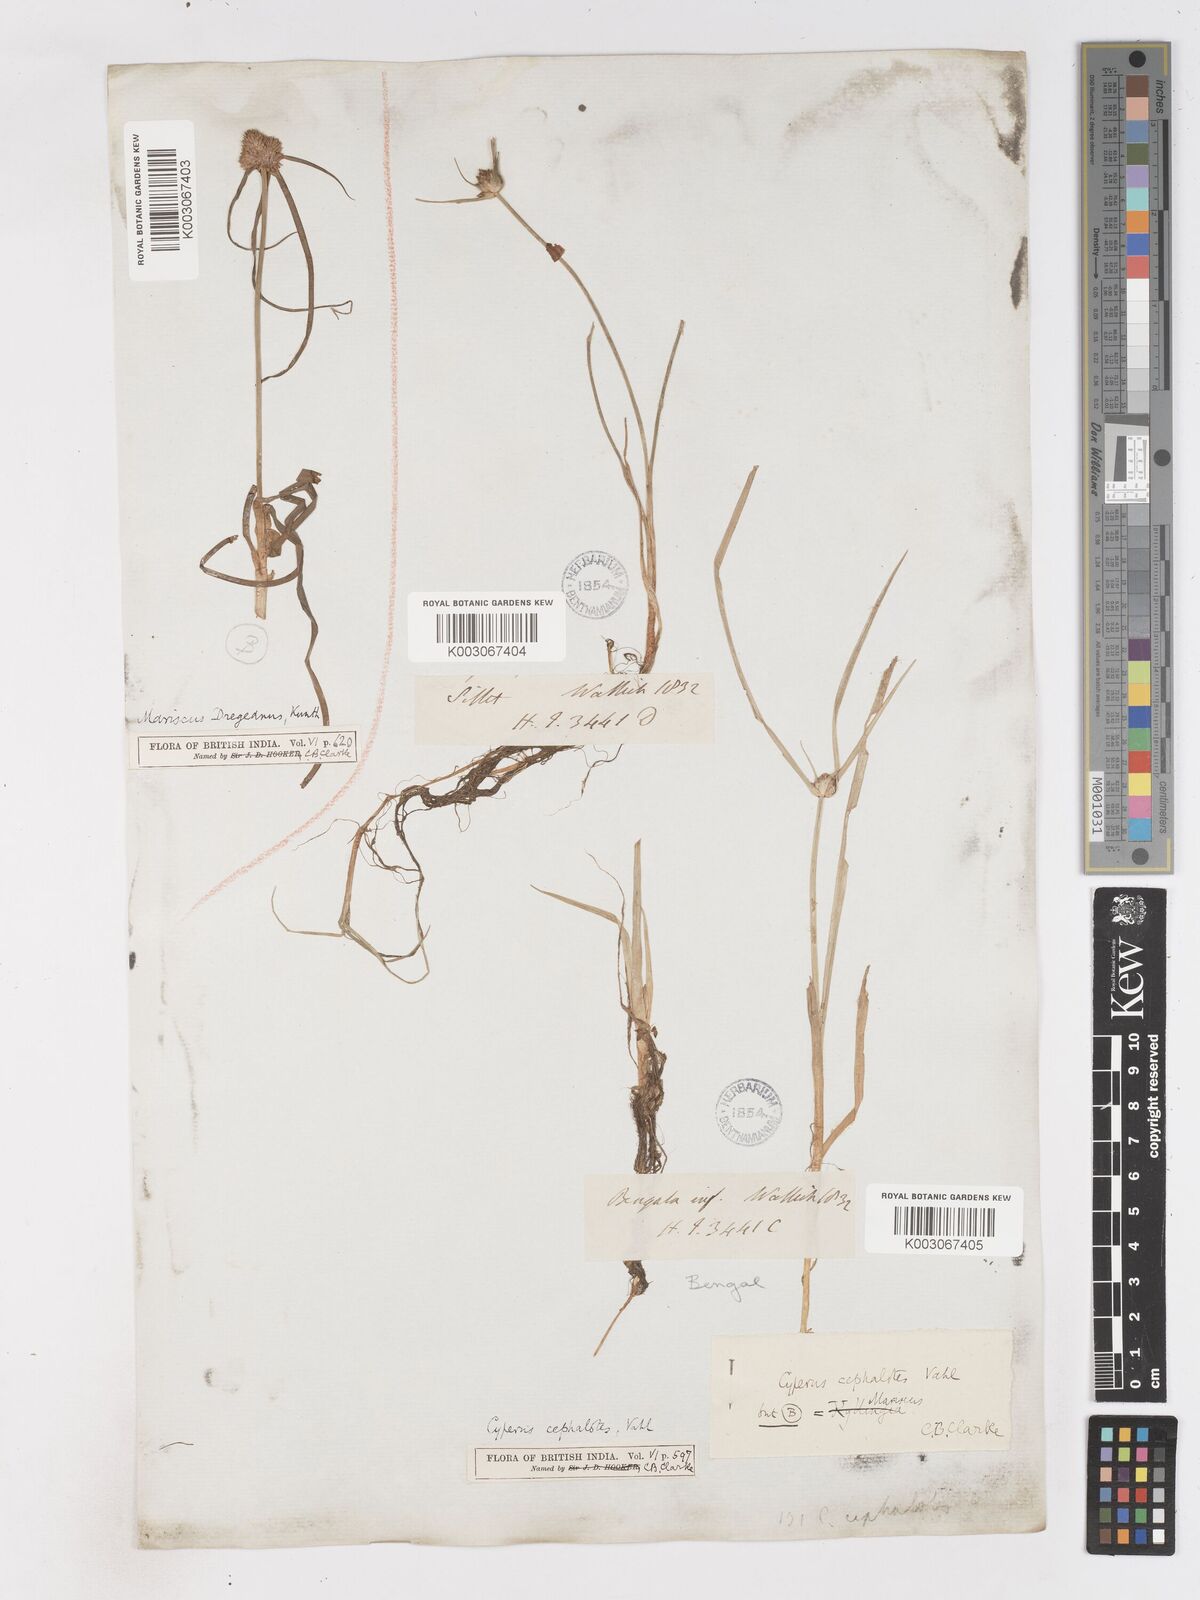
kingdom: Plantae
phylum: Tracheophyta
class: Liliopsida
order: Poales
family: Cyperaceae
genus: Cyperus
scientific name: Cyperus cephalotes
